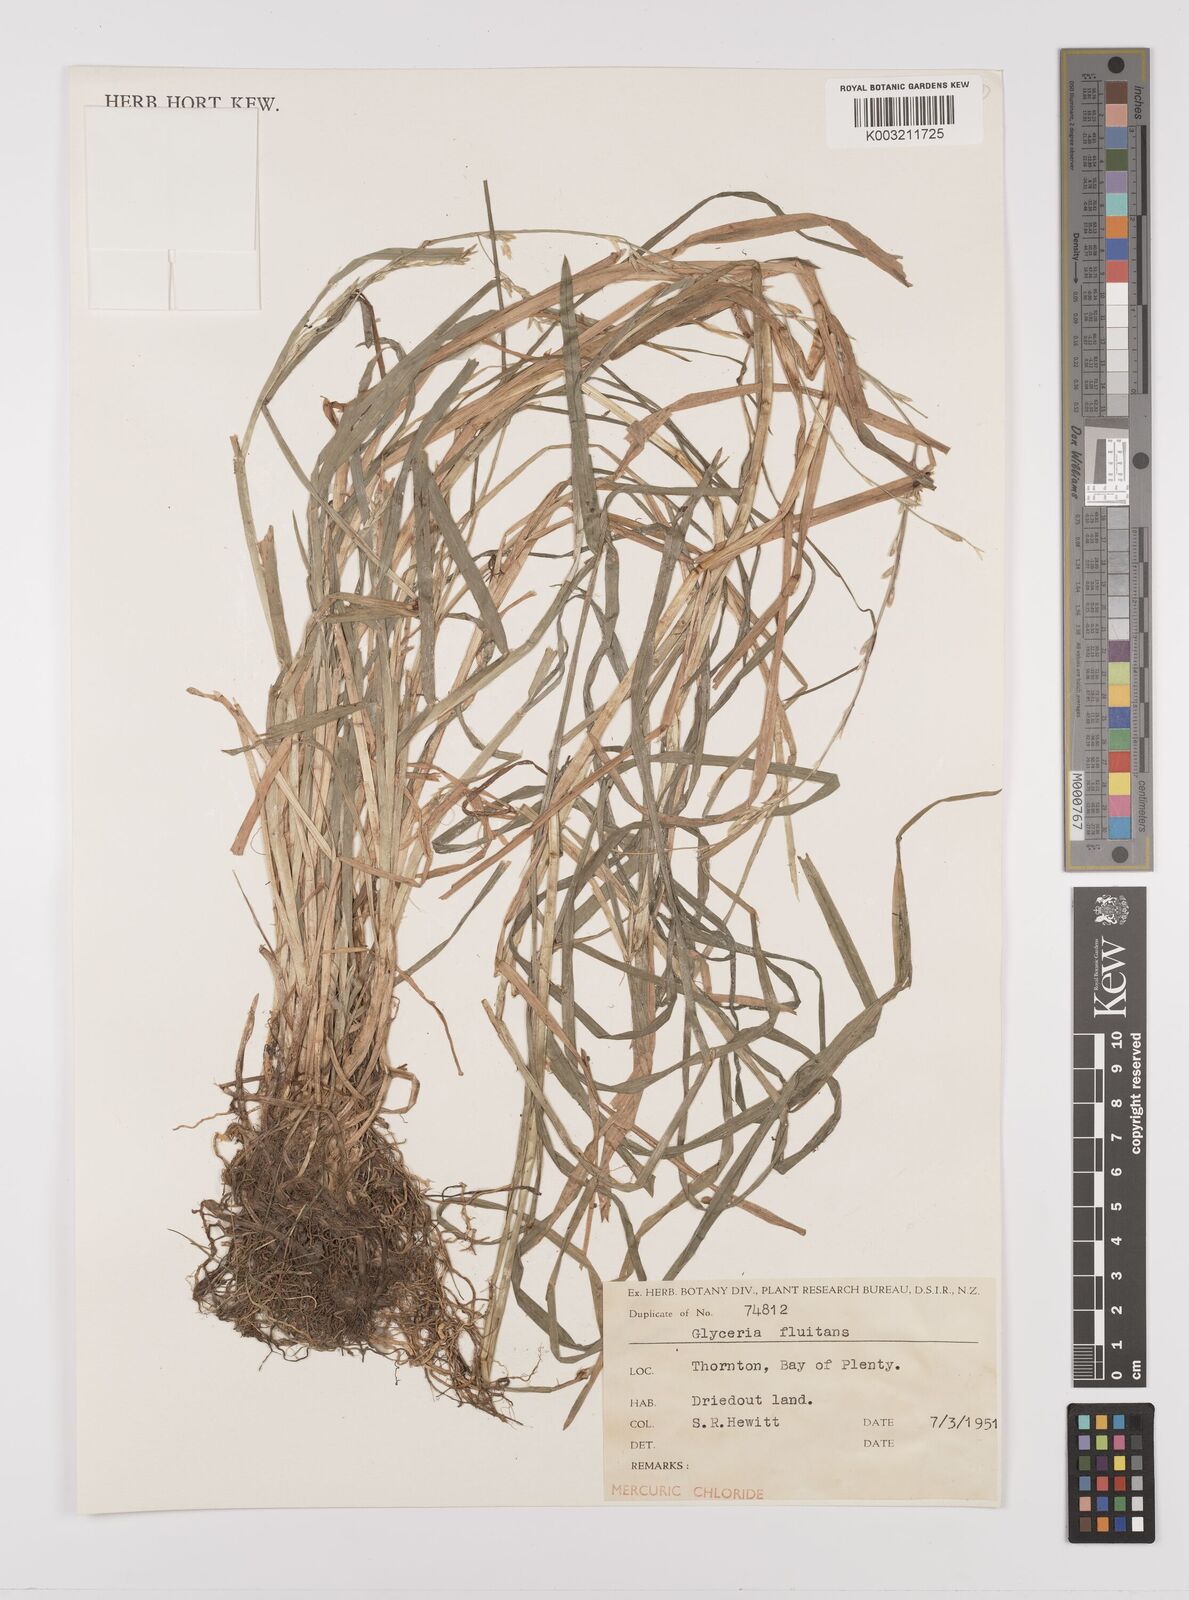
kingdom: Plantae
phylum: Tracheophyta
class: Liliopsida
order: Poales
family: Poaceae
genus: Glyceria
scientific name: Glyceria fluitans
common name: Floating sweet-grass
